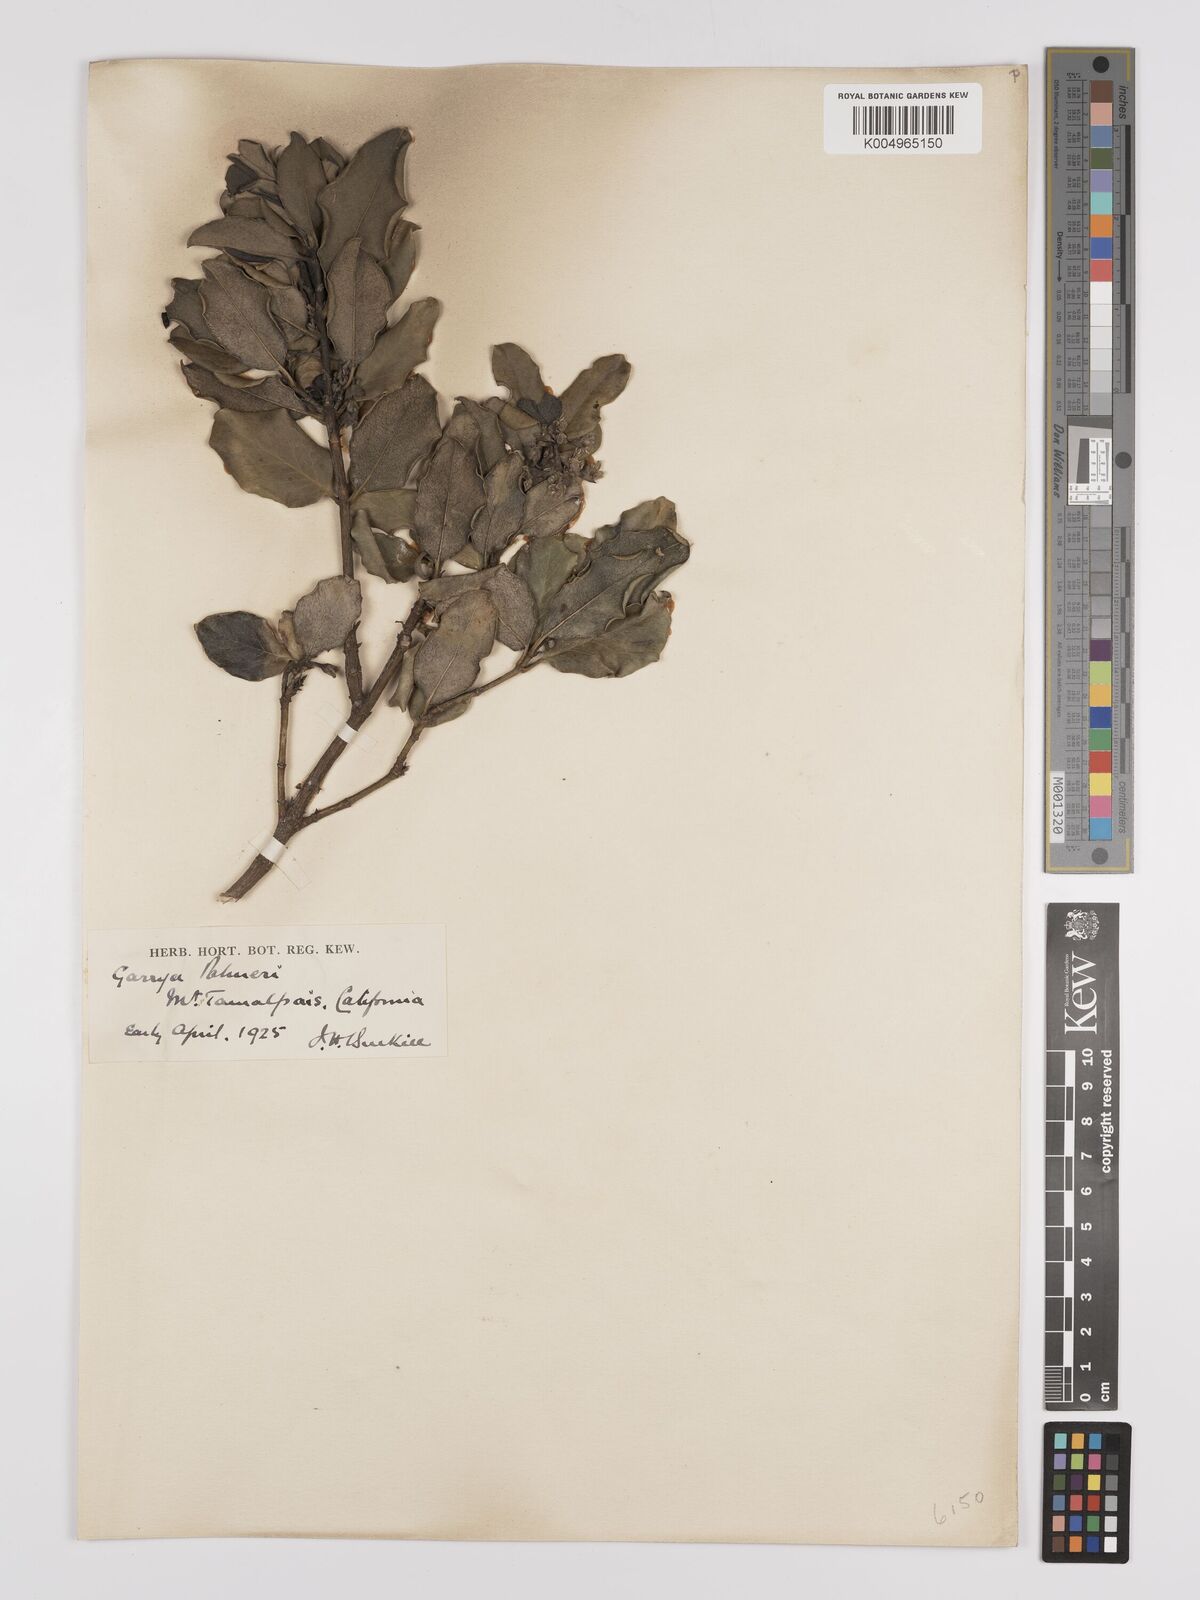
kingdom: Plantae
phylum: Tracheophyta
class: Magnoliopsida
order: Garryales
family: Garryaceae
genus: Garrya
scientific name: Garrya veatchii
